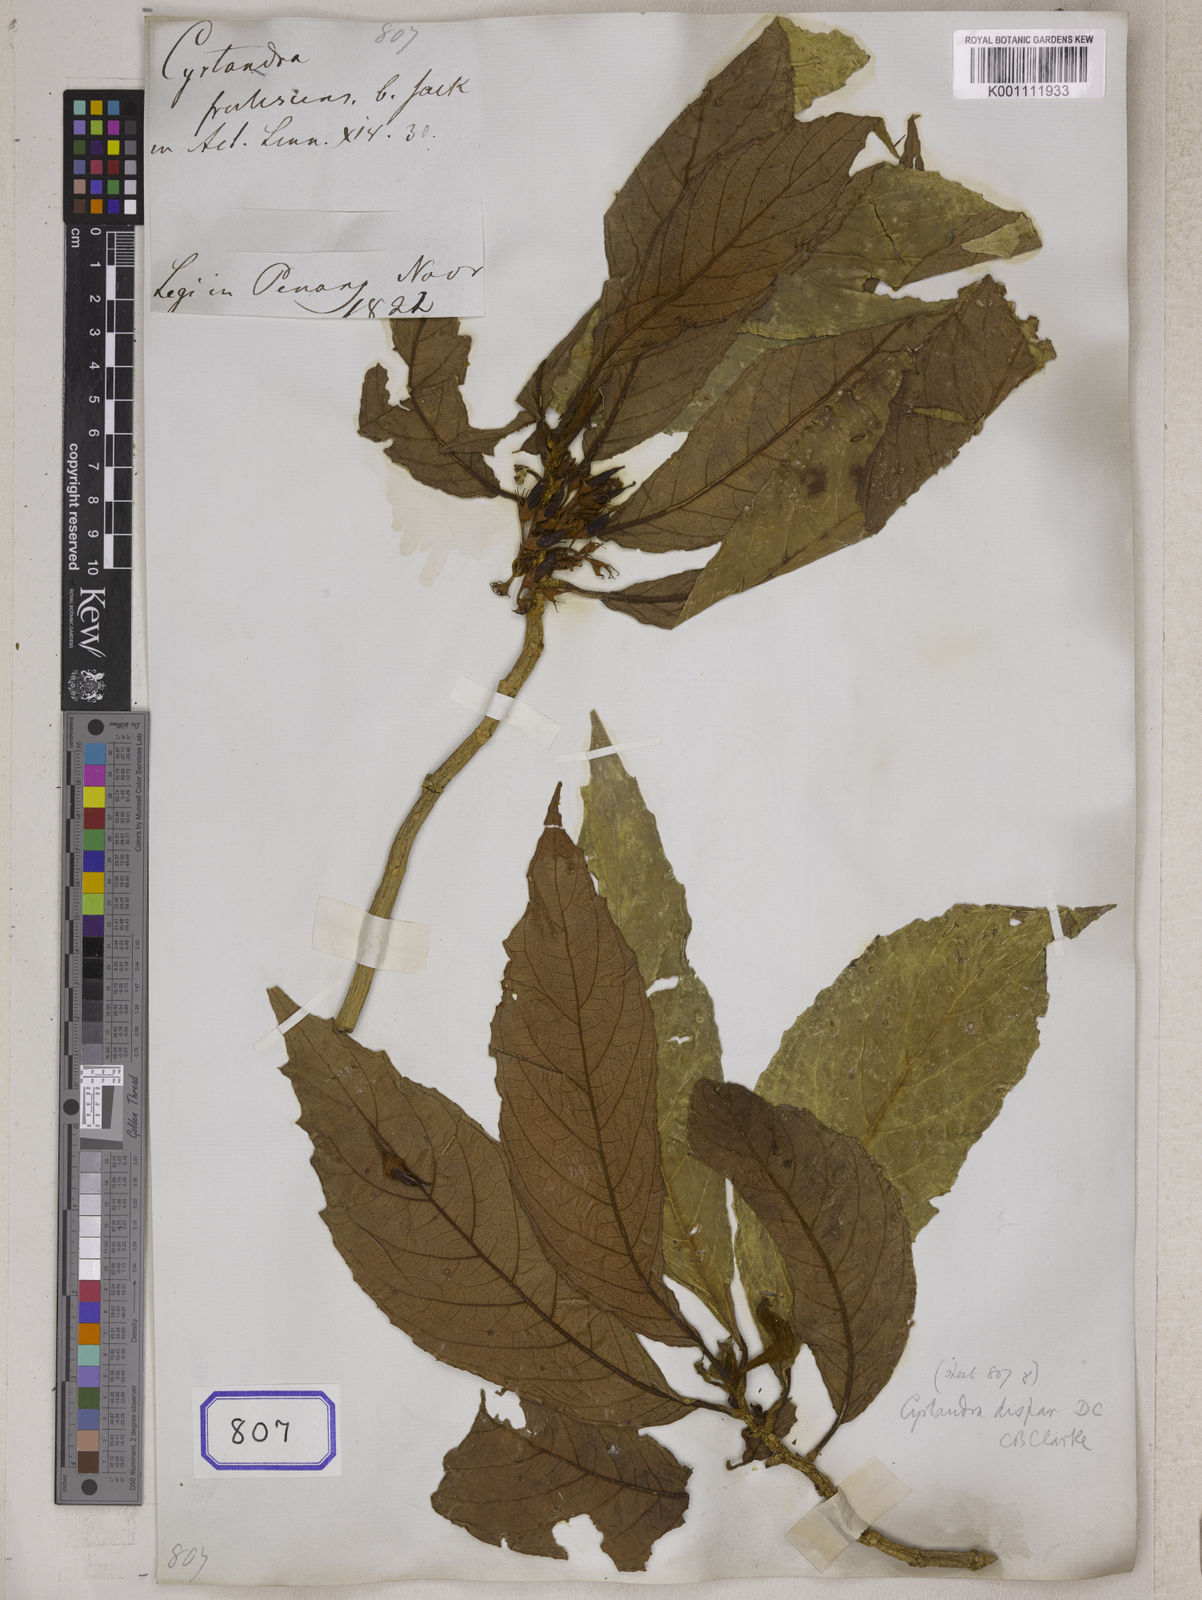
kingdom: Plantae
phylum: Tracheophyta
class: Magnoliopsida
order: Lamiales
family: Gesneriaceae
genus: Cyrtandra
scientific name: Cyrtandra frutescens
